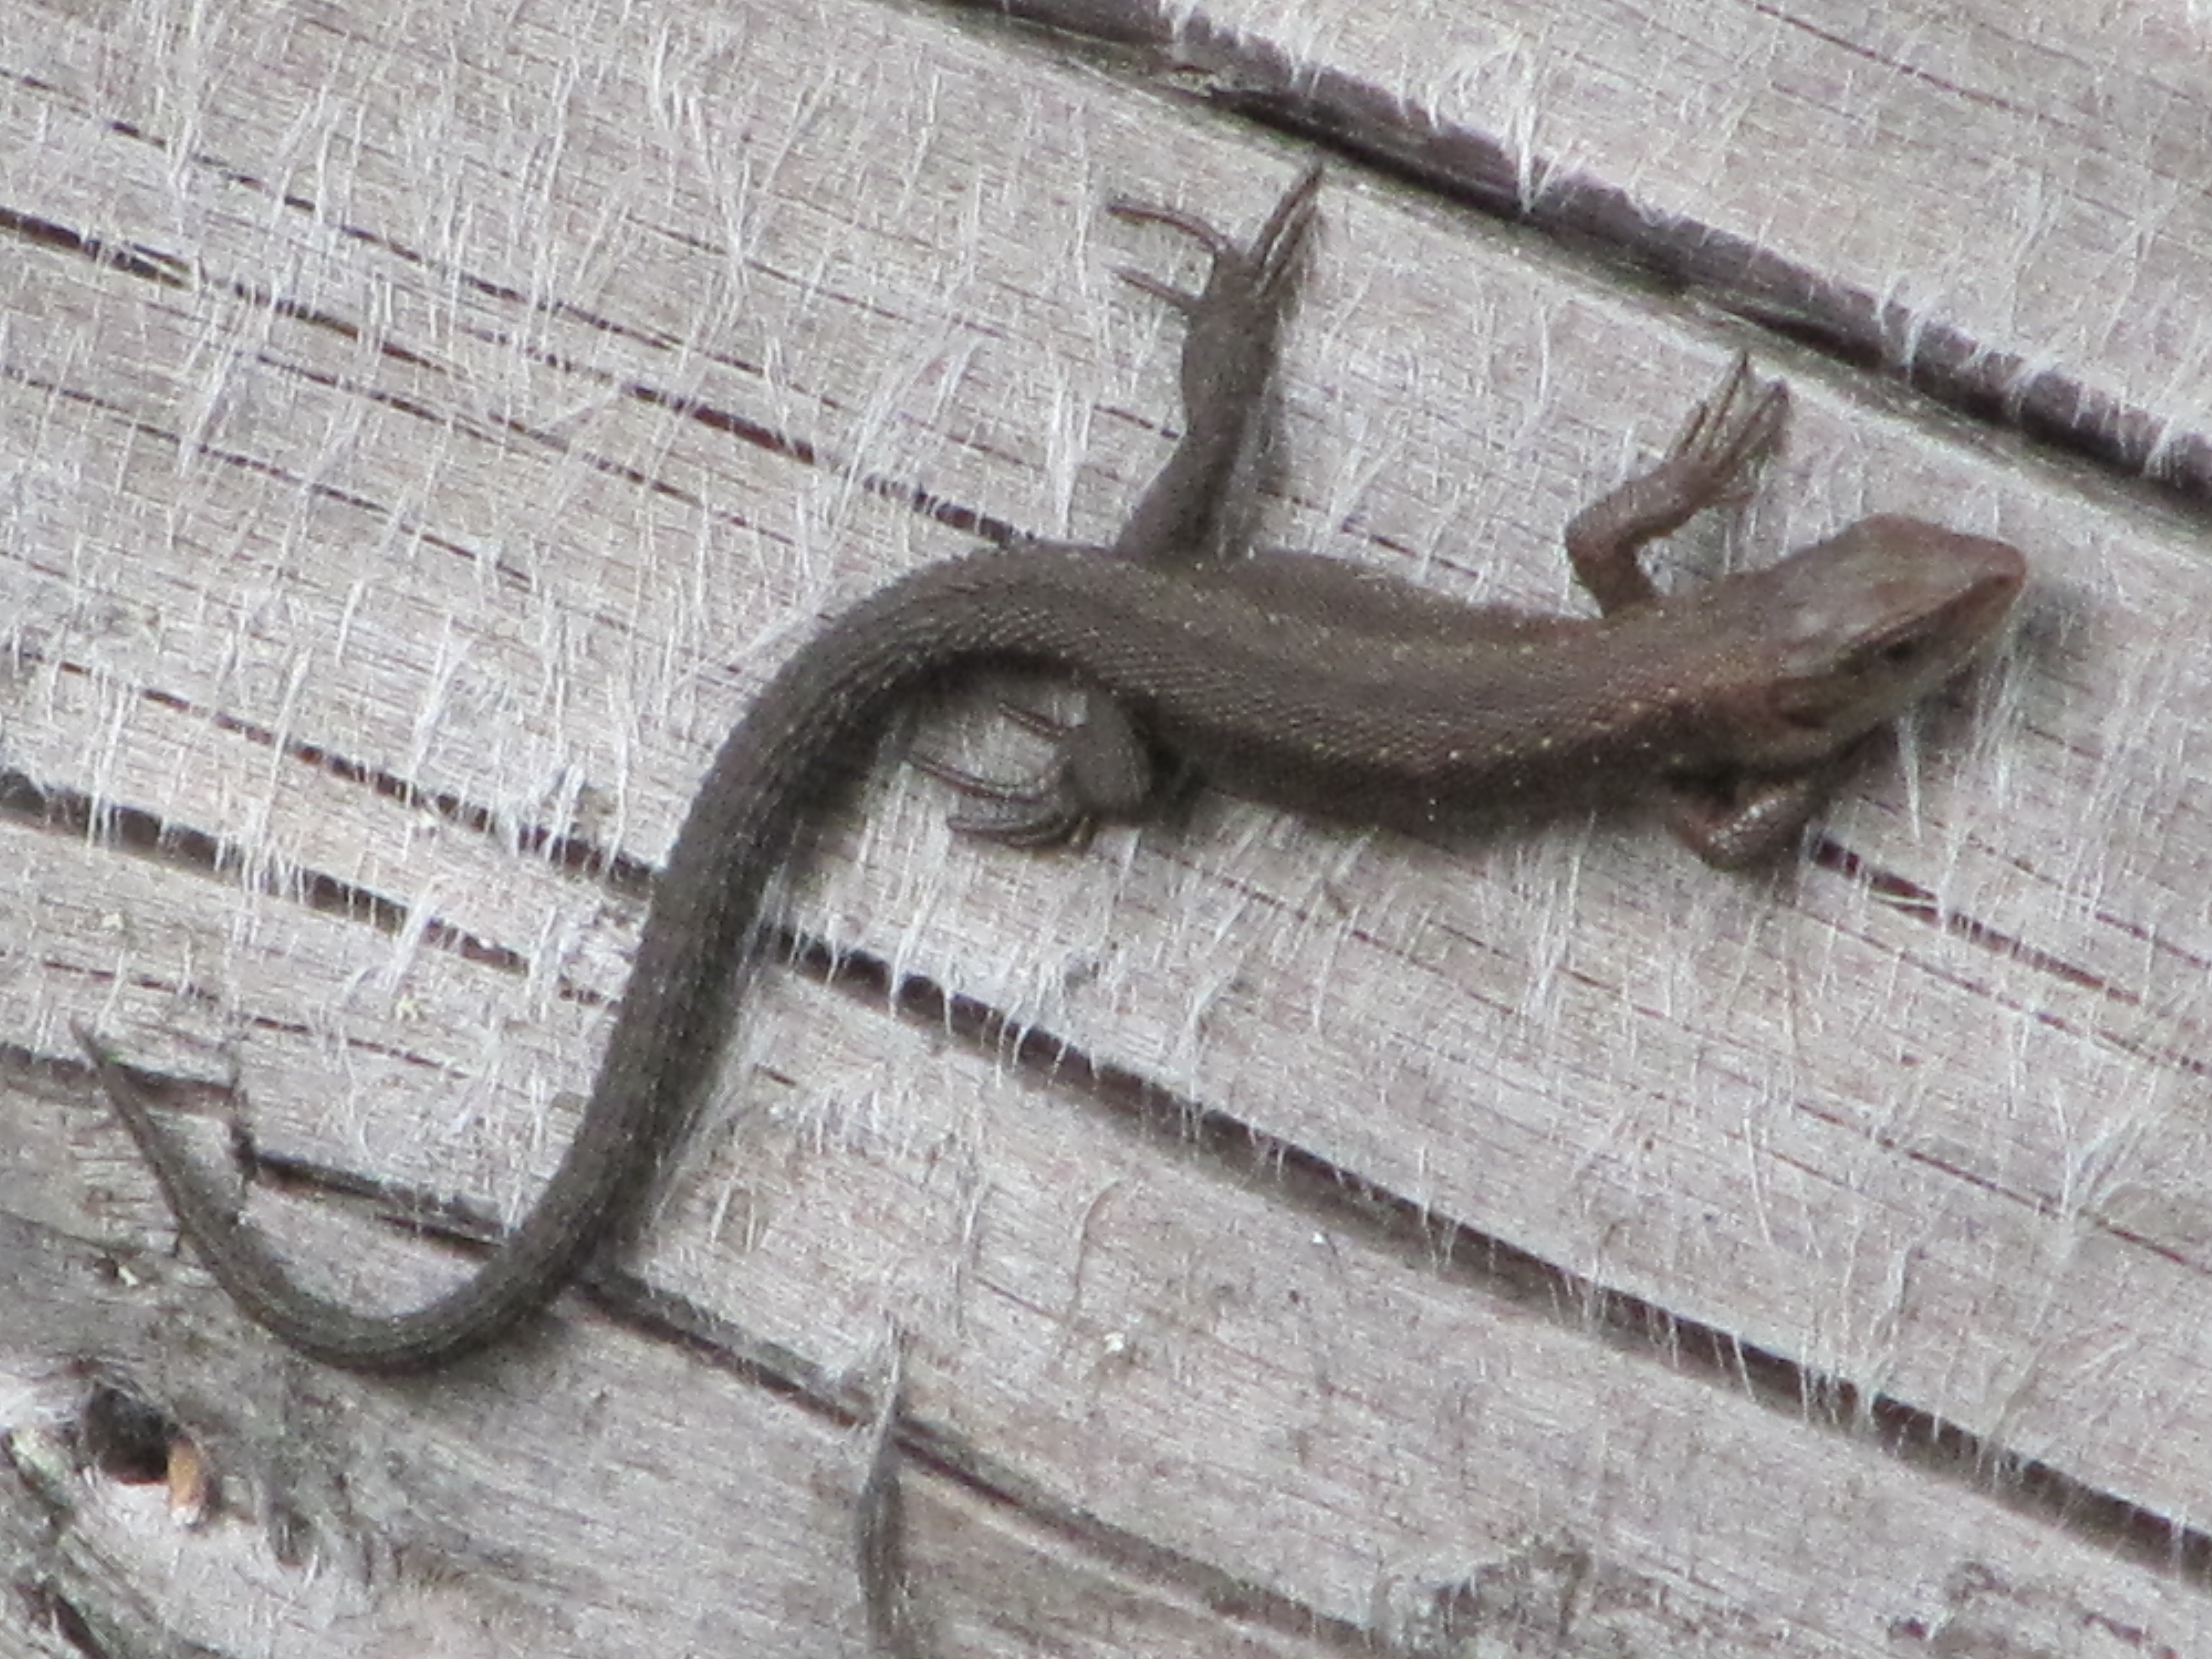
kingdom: Animalia
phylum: Chordata
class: Squamata
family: Lacertidae
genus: Zootoca
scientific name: Zootoca vivipara
